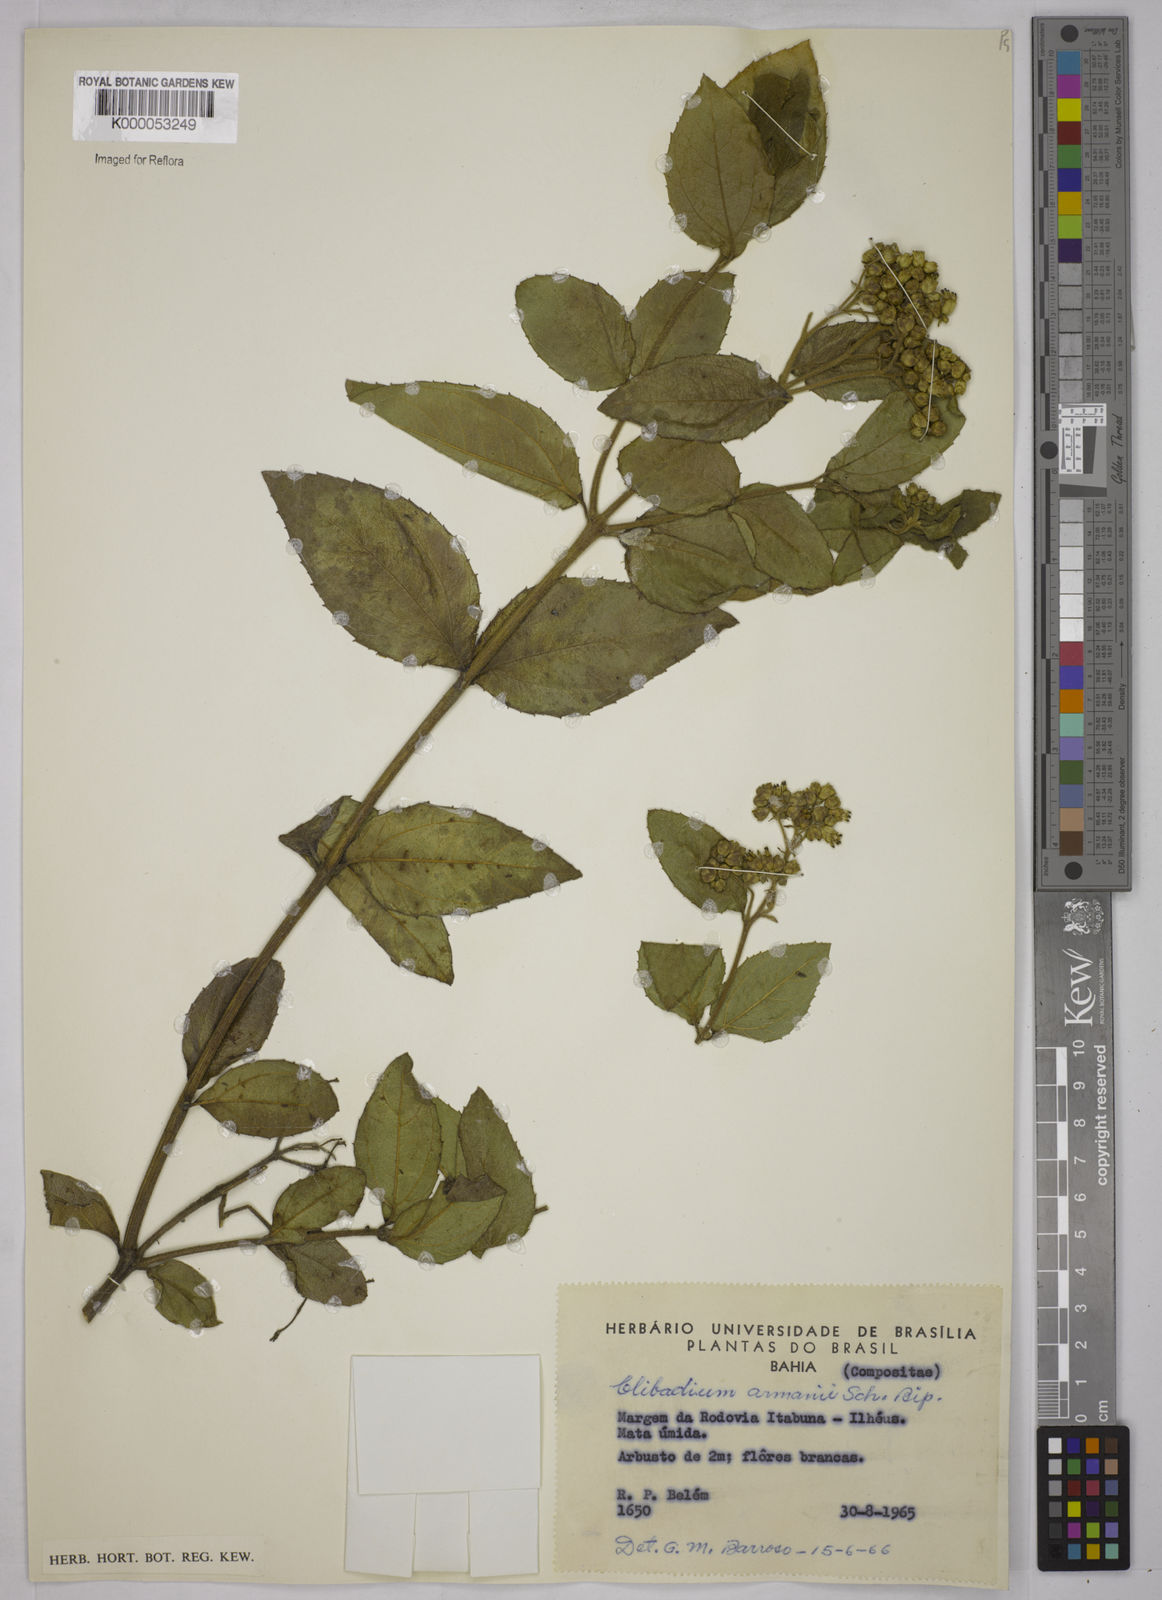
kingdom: Plantae
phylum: Tracheophyta
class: Magnoliopsida
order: Asterales
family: Asteraceae
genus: Clibadium
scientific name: Clibadium armanii
